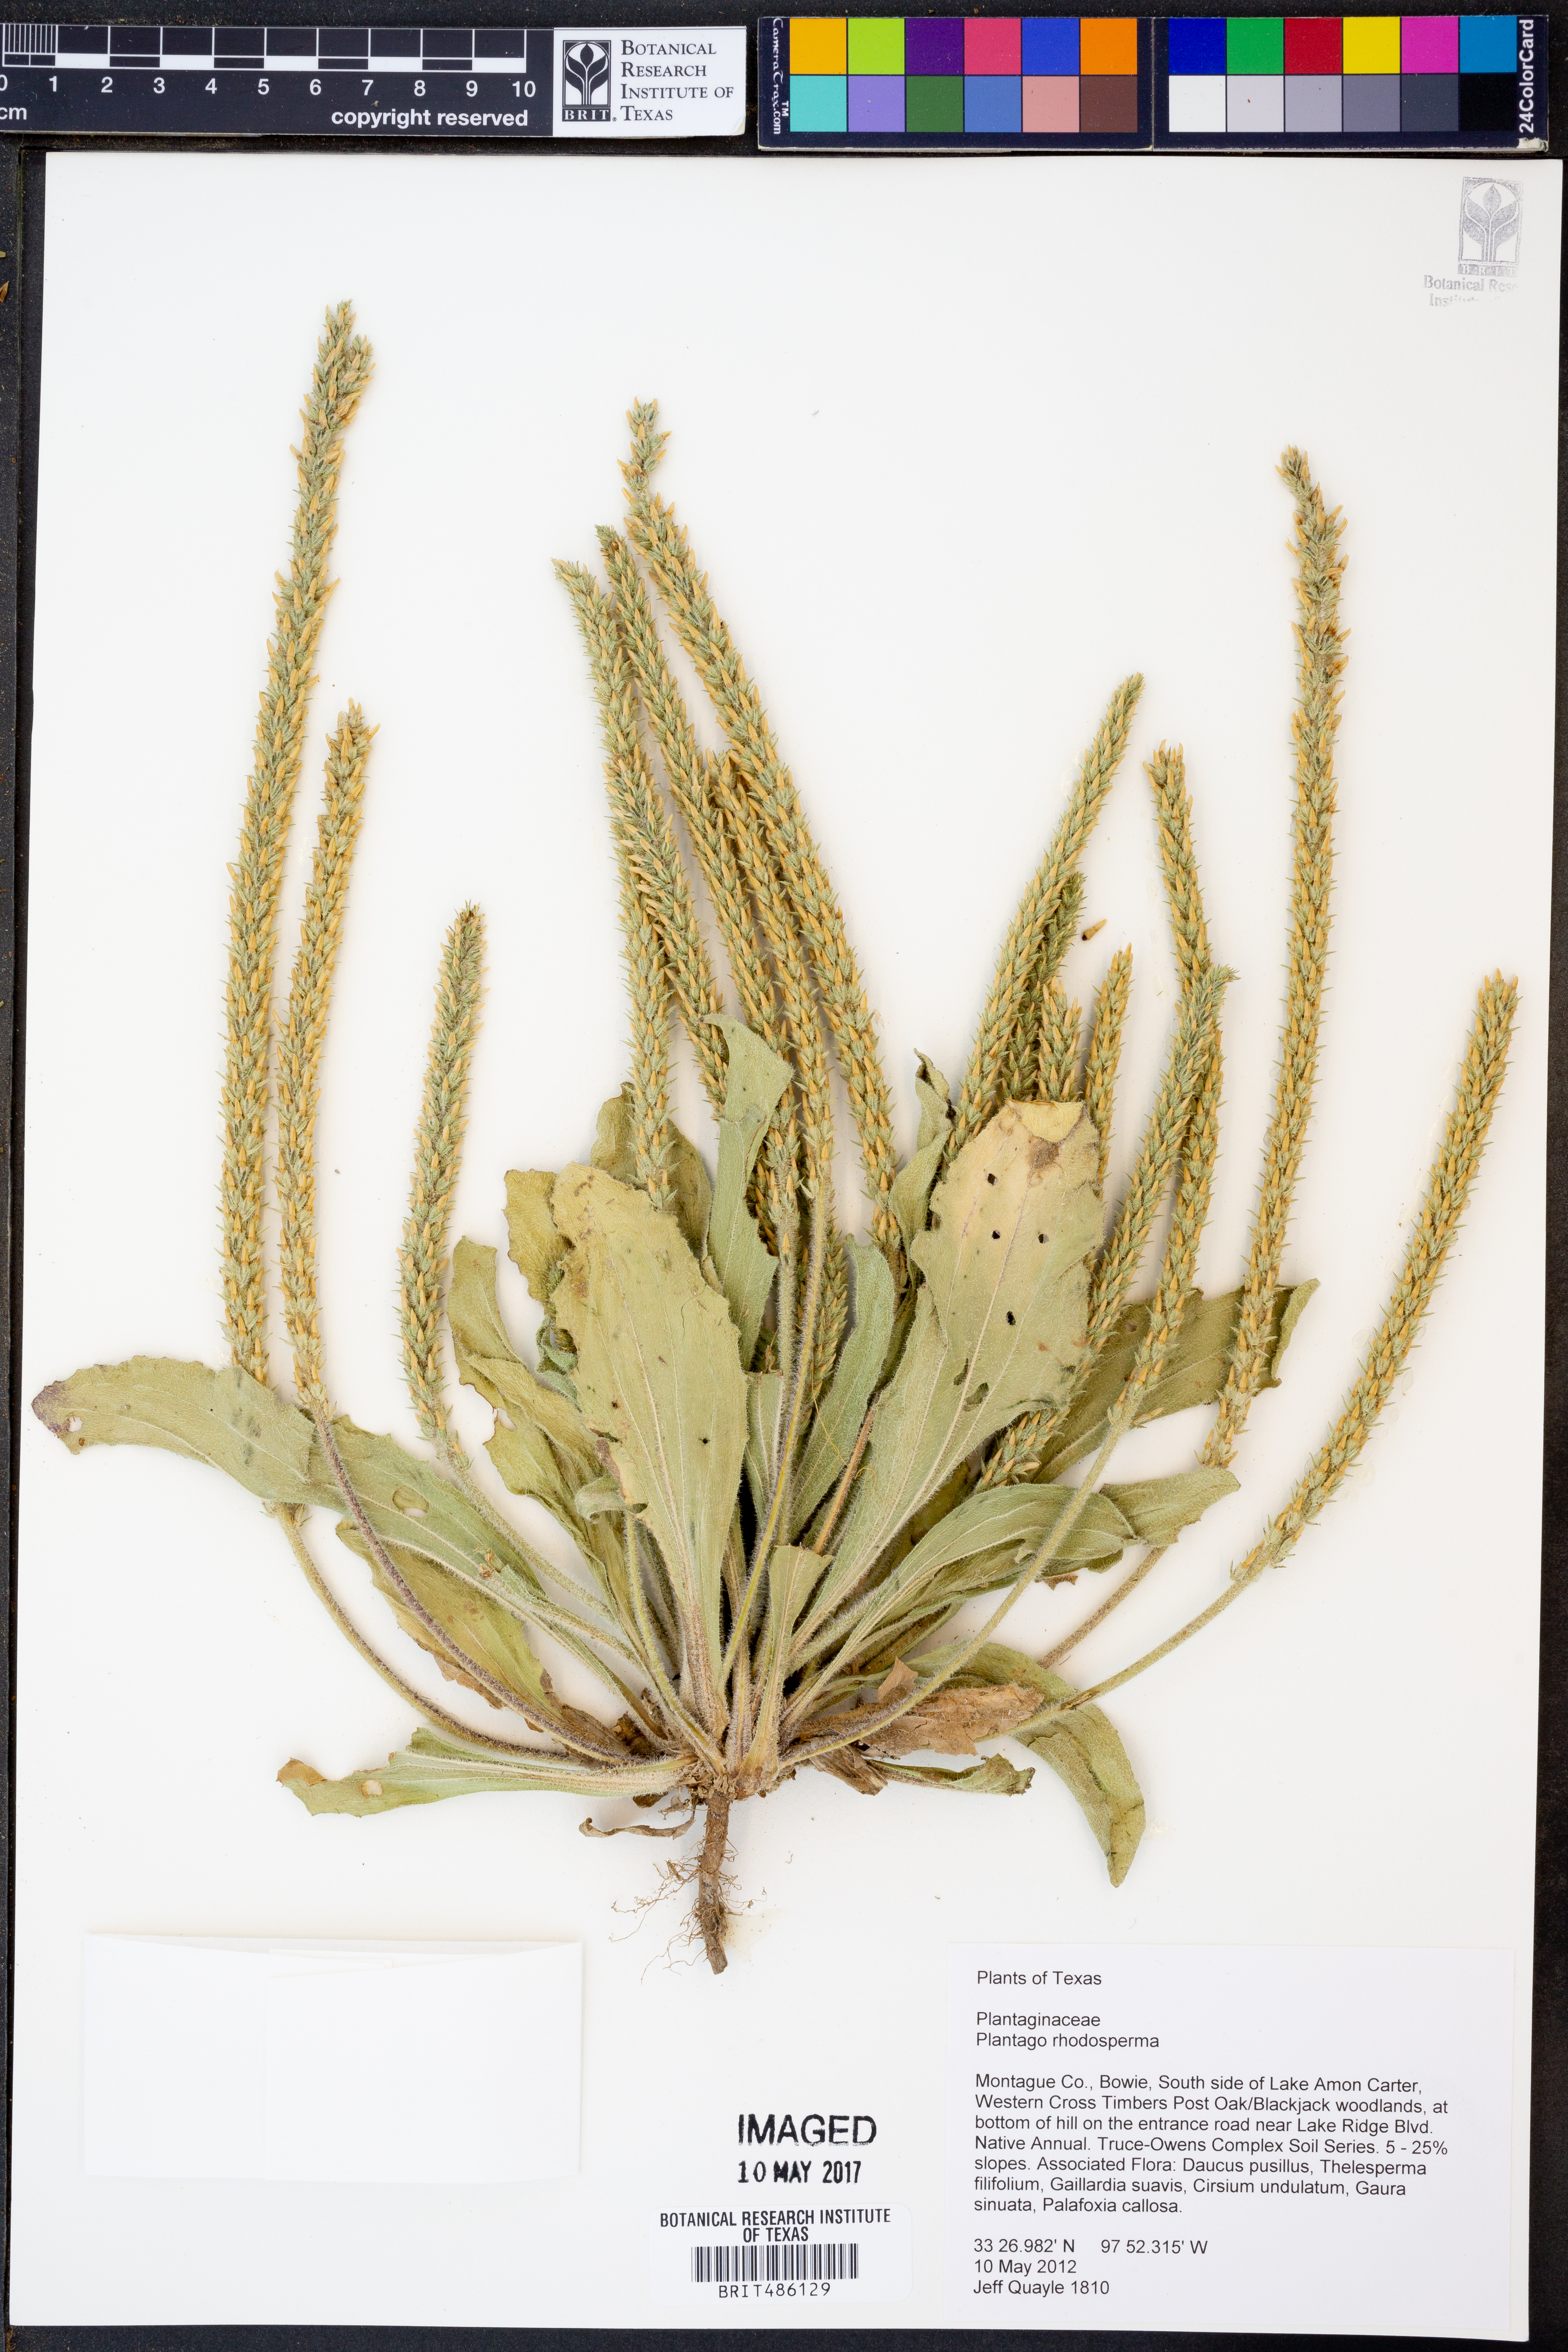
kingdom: Plantae
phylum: Tracheophyta
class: Magnoliopsida
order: Lamiales
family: Plantaginaceae
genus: Plantago
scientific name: Plantago rhodosperma
